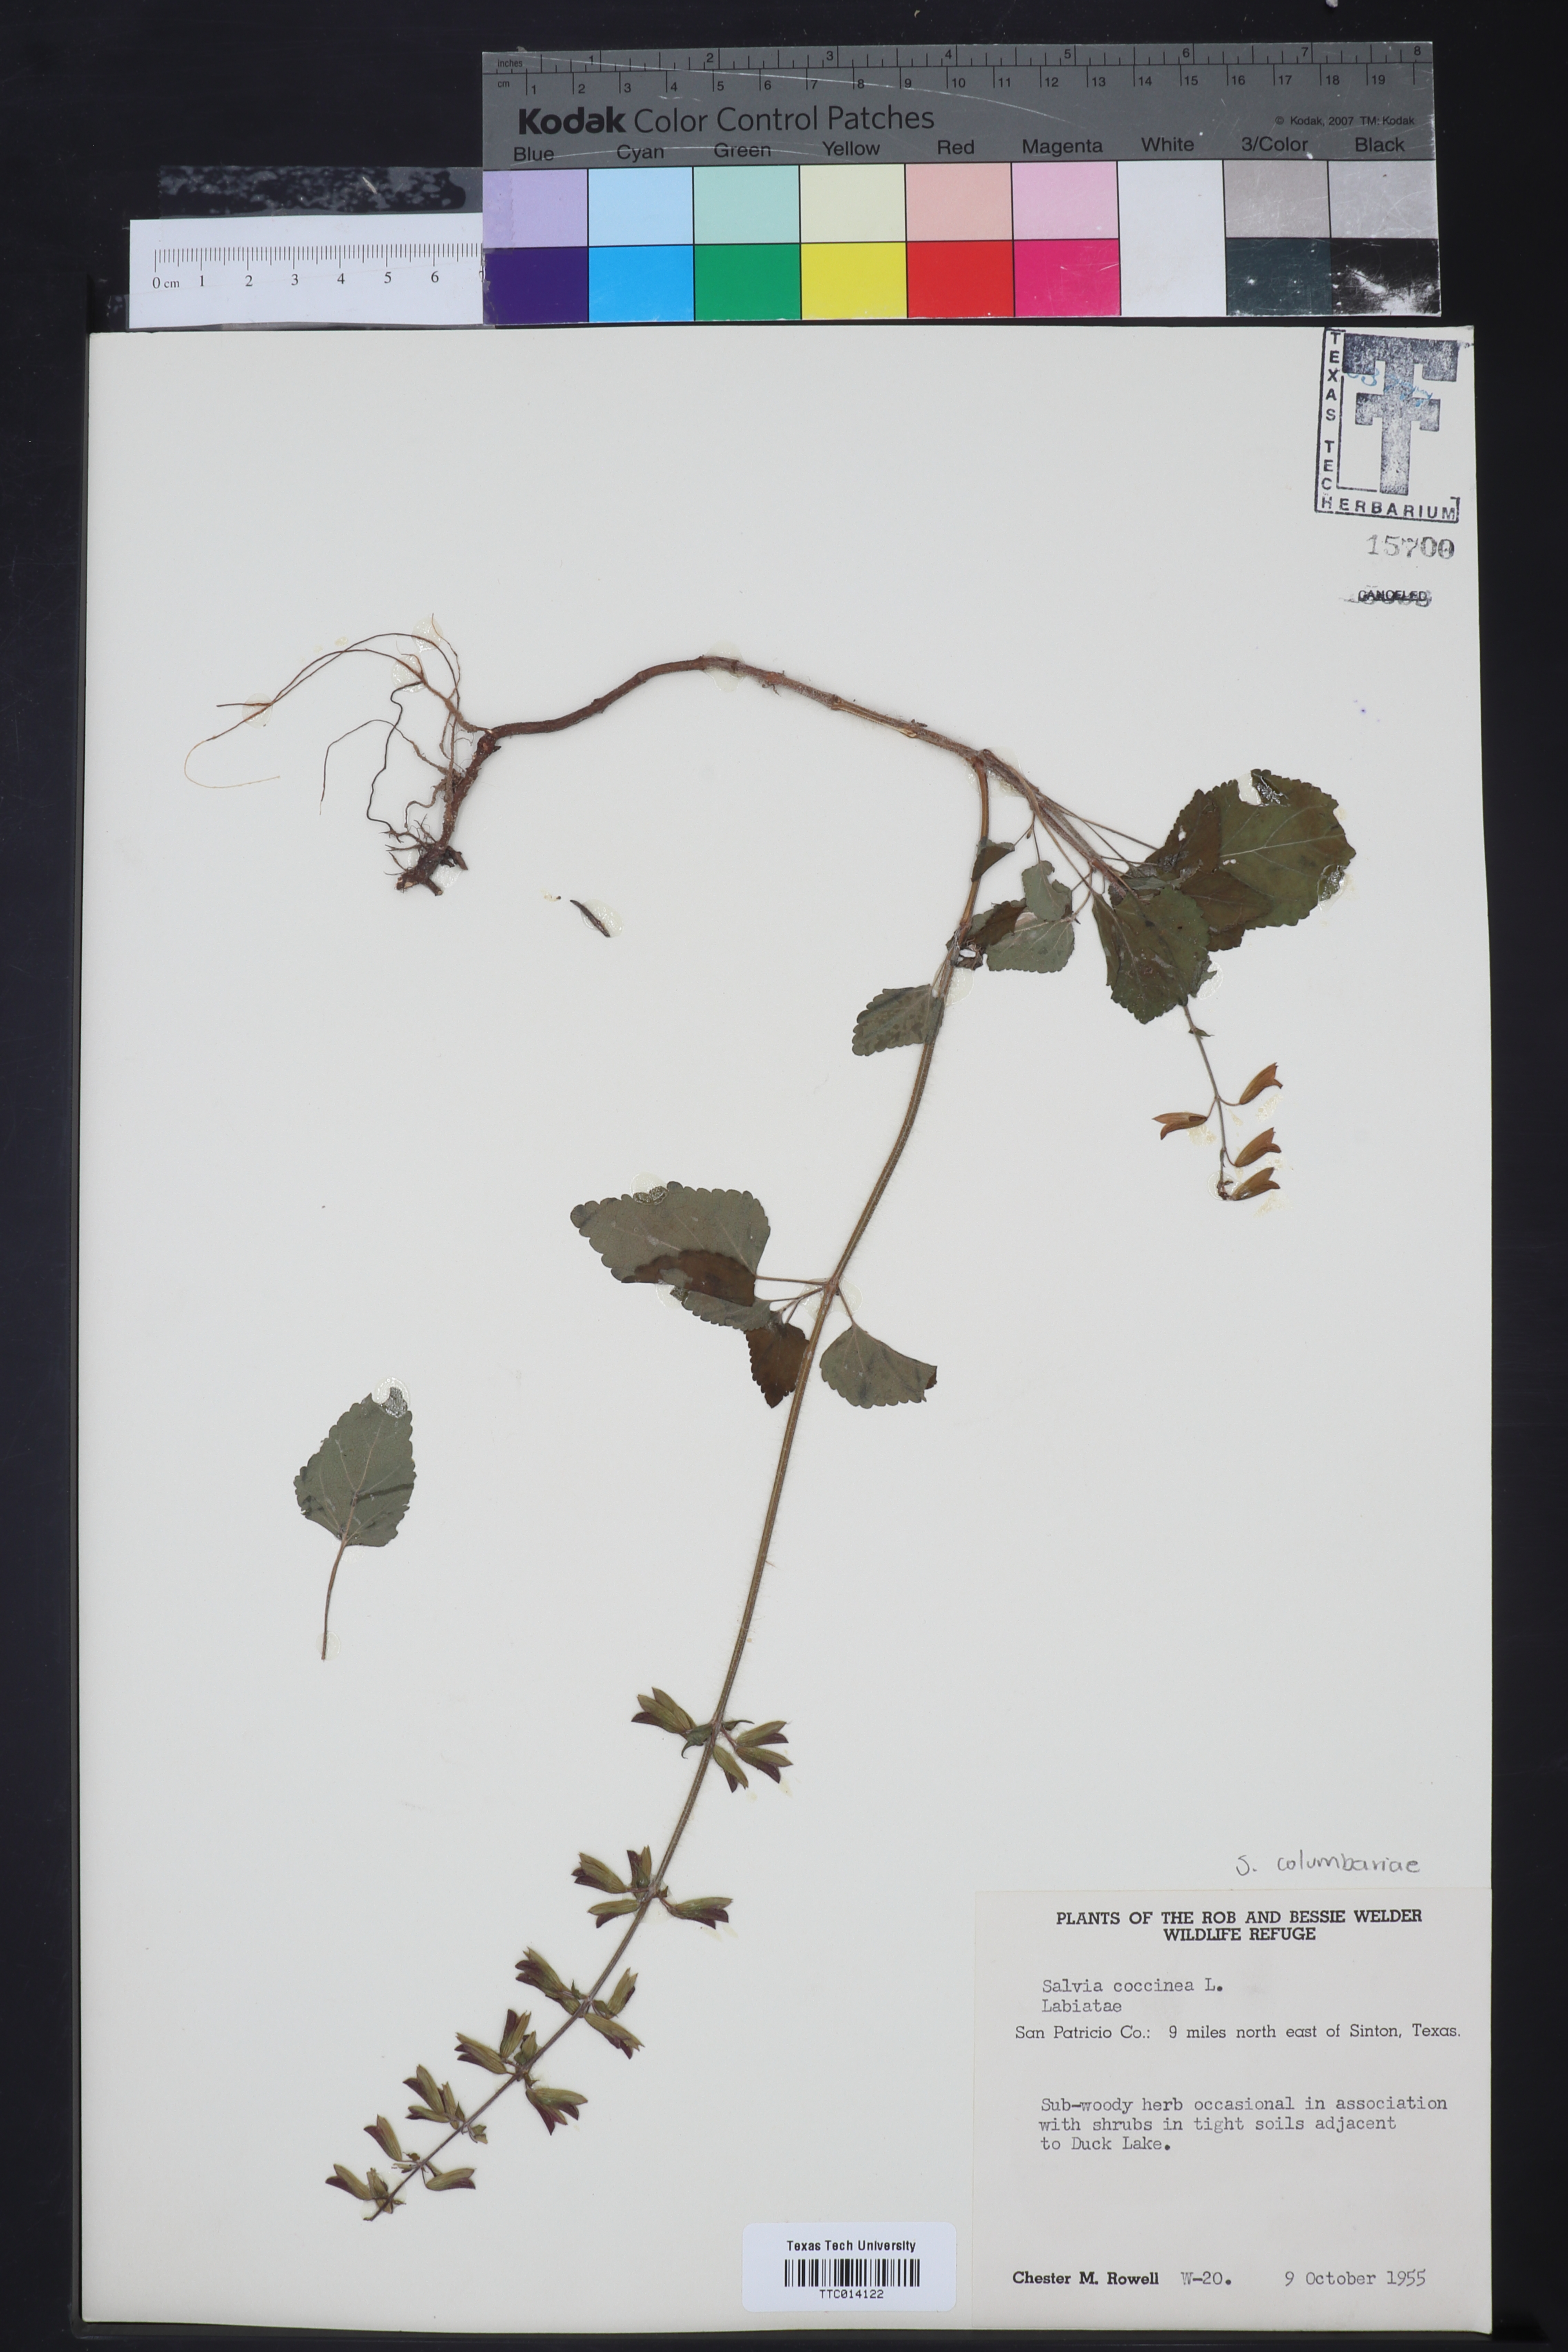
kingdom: Plantae
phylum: Tracheophyta
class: Magnoliopsida
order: Lamiales
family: Lamiaceae
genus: Salvia
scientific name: Salvia coccinea
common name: Blood sage
